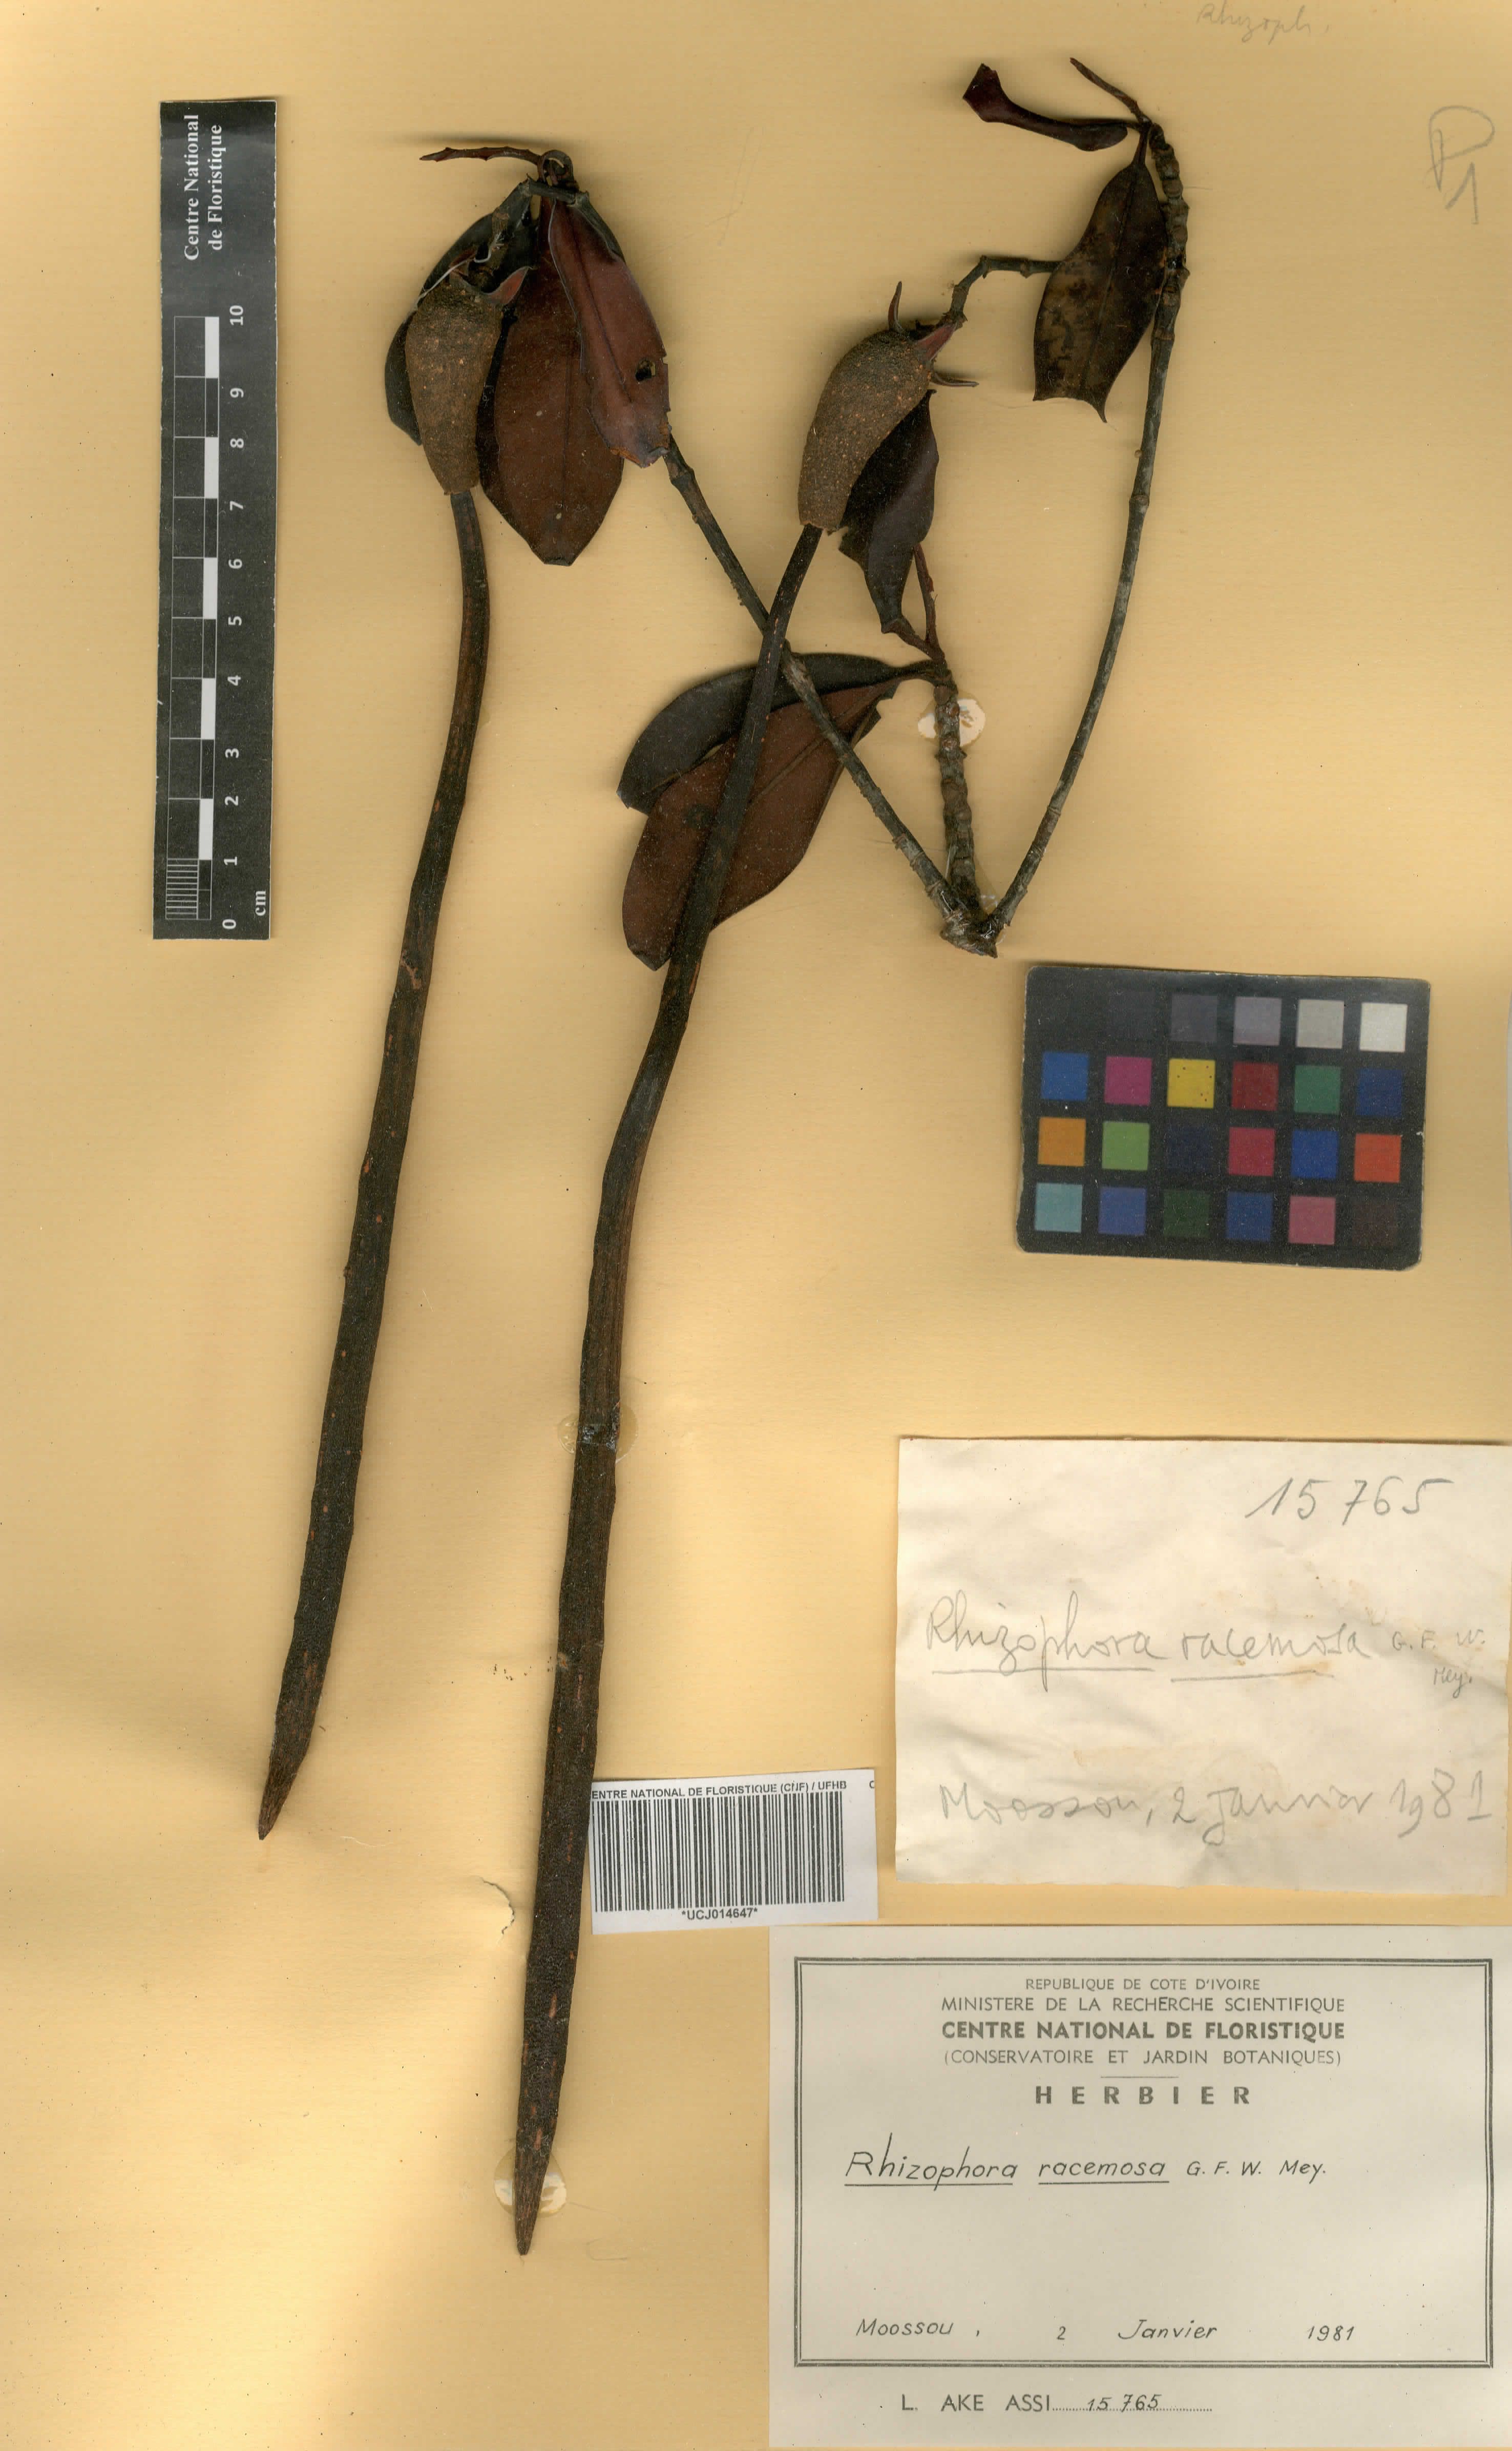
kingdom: Plantae
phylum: Tracheophyta
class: Magnoliopsida
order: Malpighiales
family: Rhizophoraceae
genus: Rhizophora
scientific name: Rhizophora racemosa
